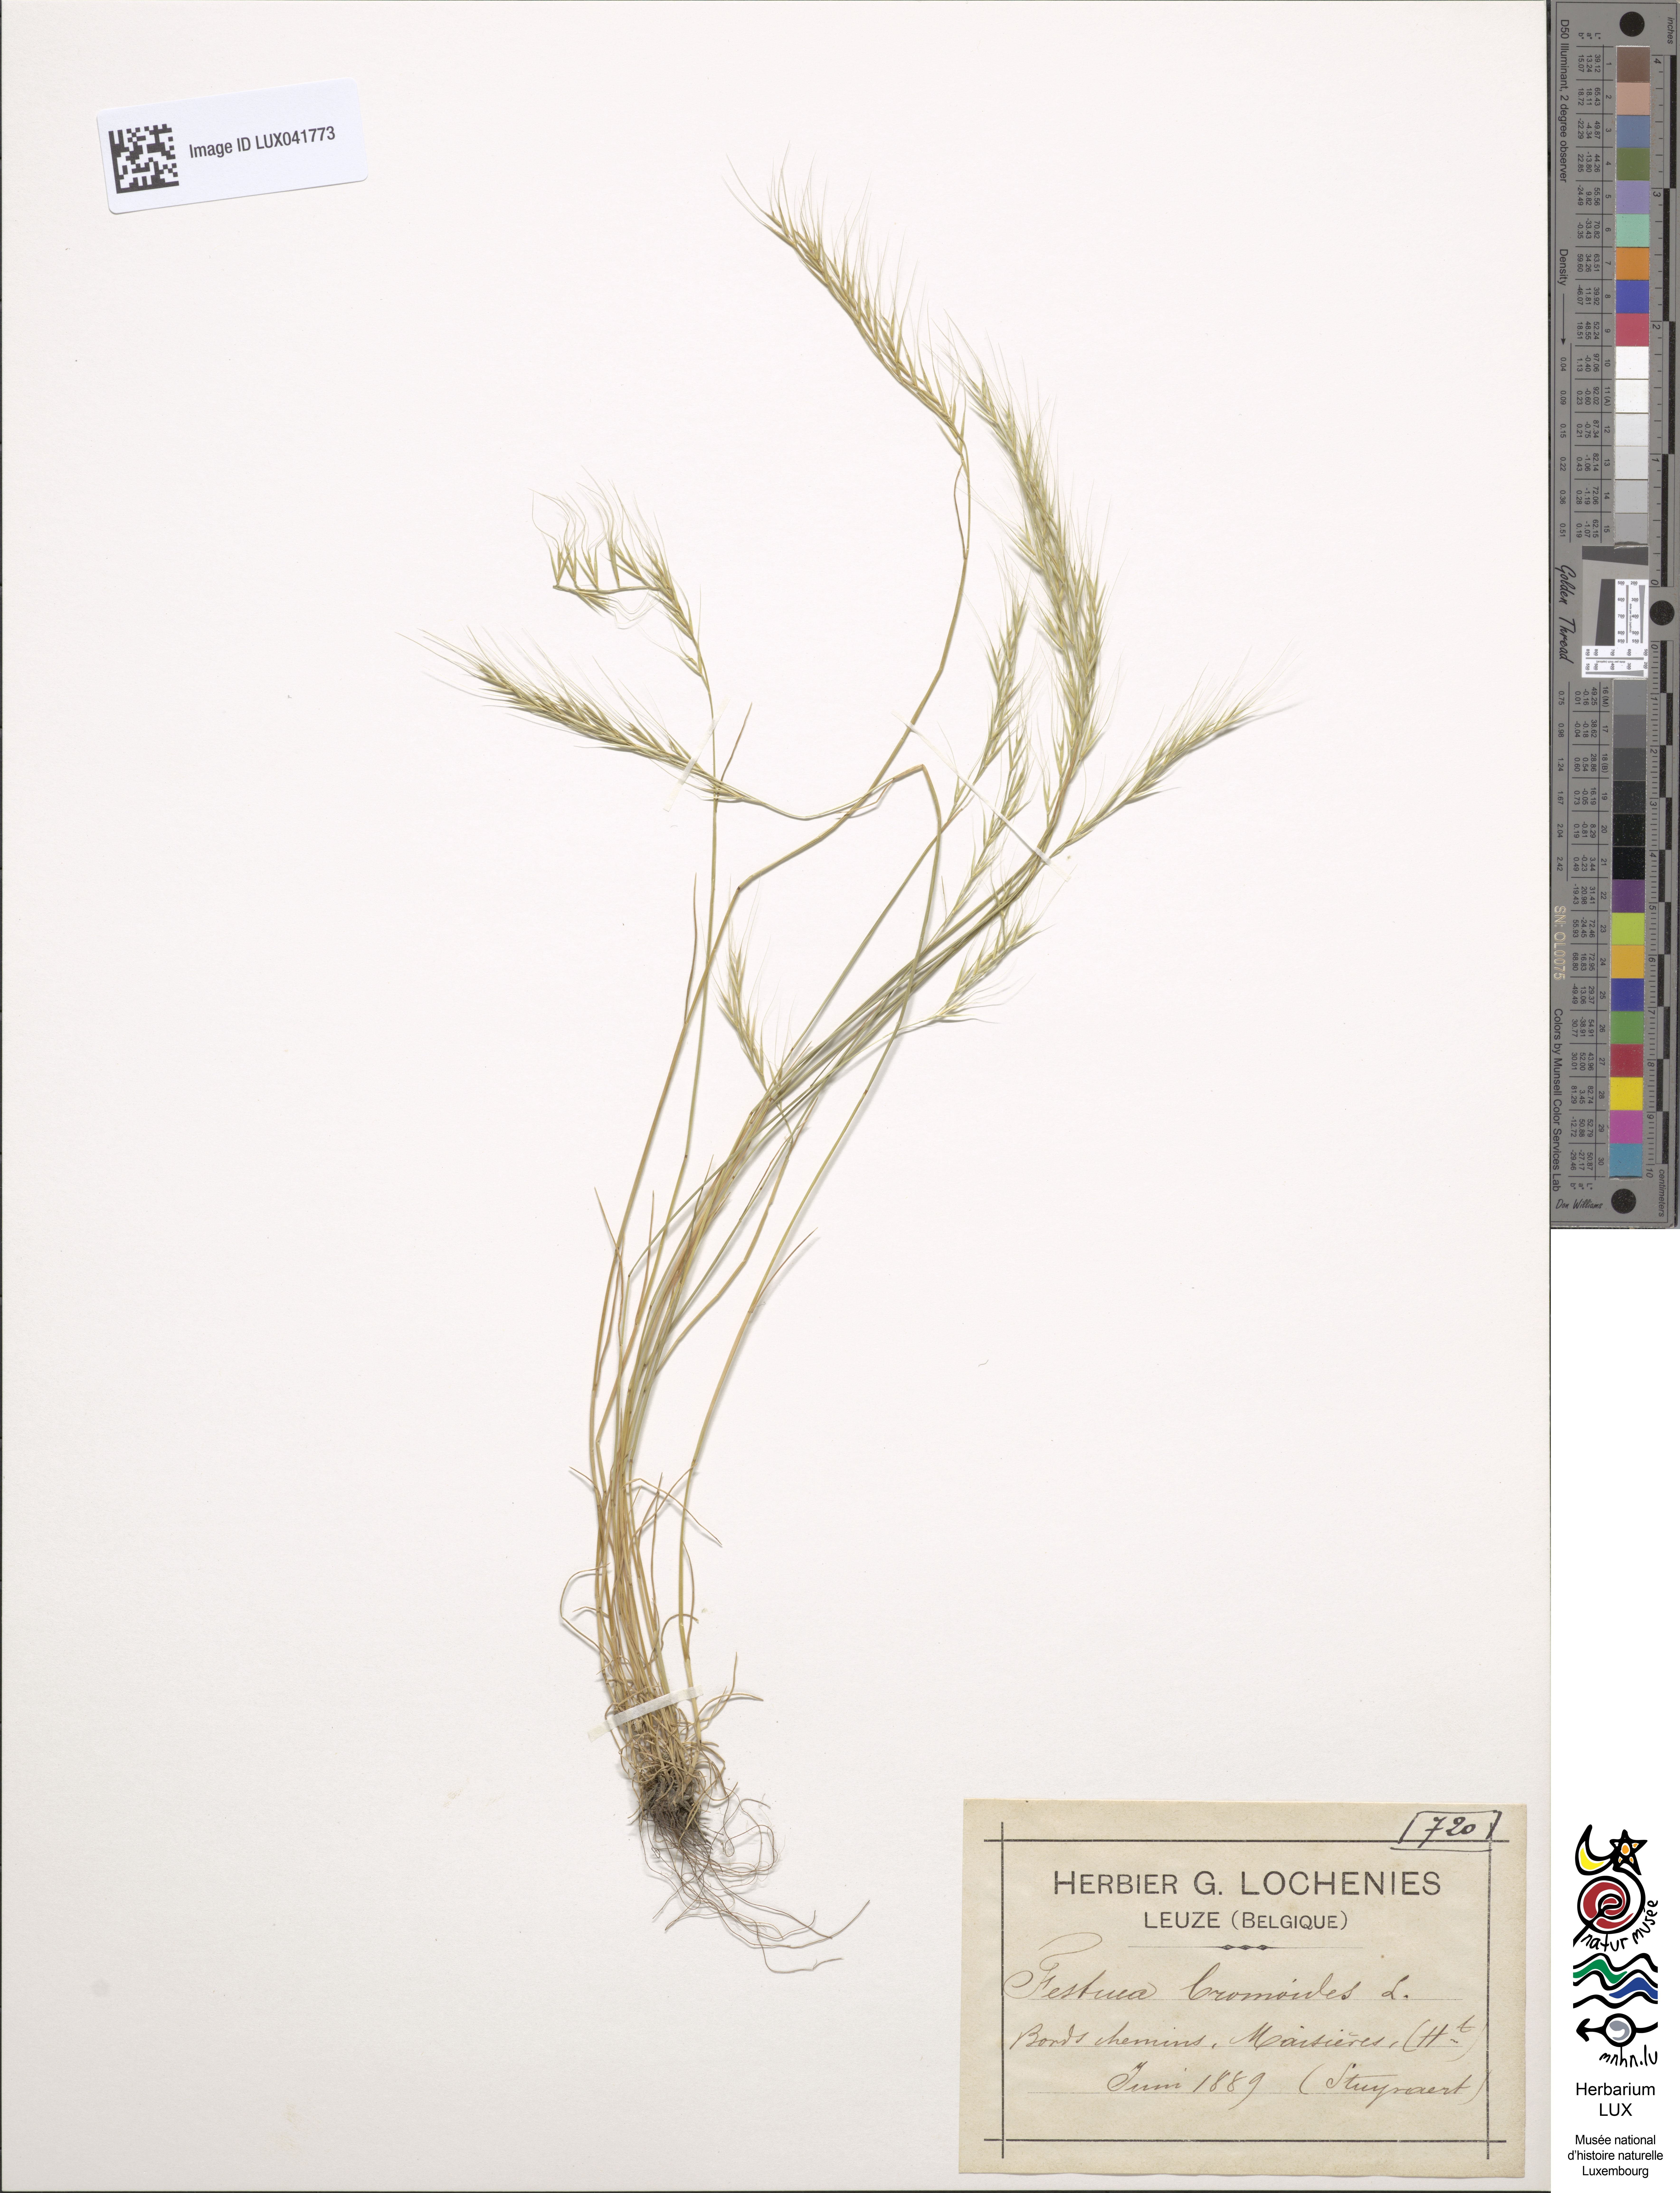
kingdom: Plantae
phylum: Tracheophyta
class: Liliopsida
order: Poales
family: Poaceae
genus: Festuca
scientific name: Festuca bromoides
